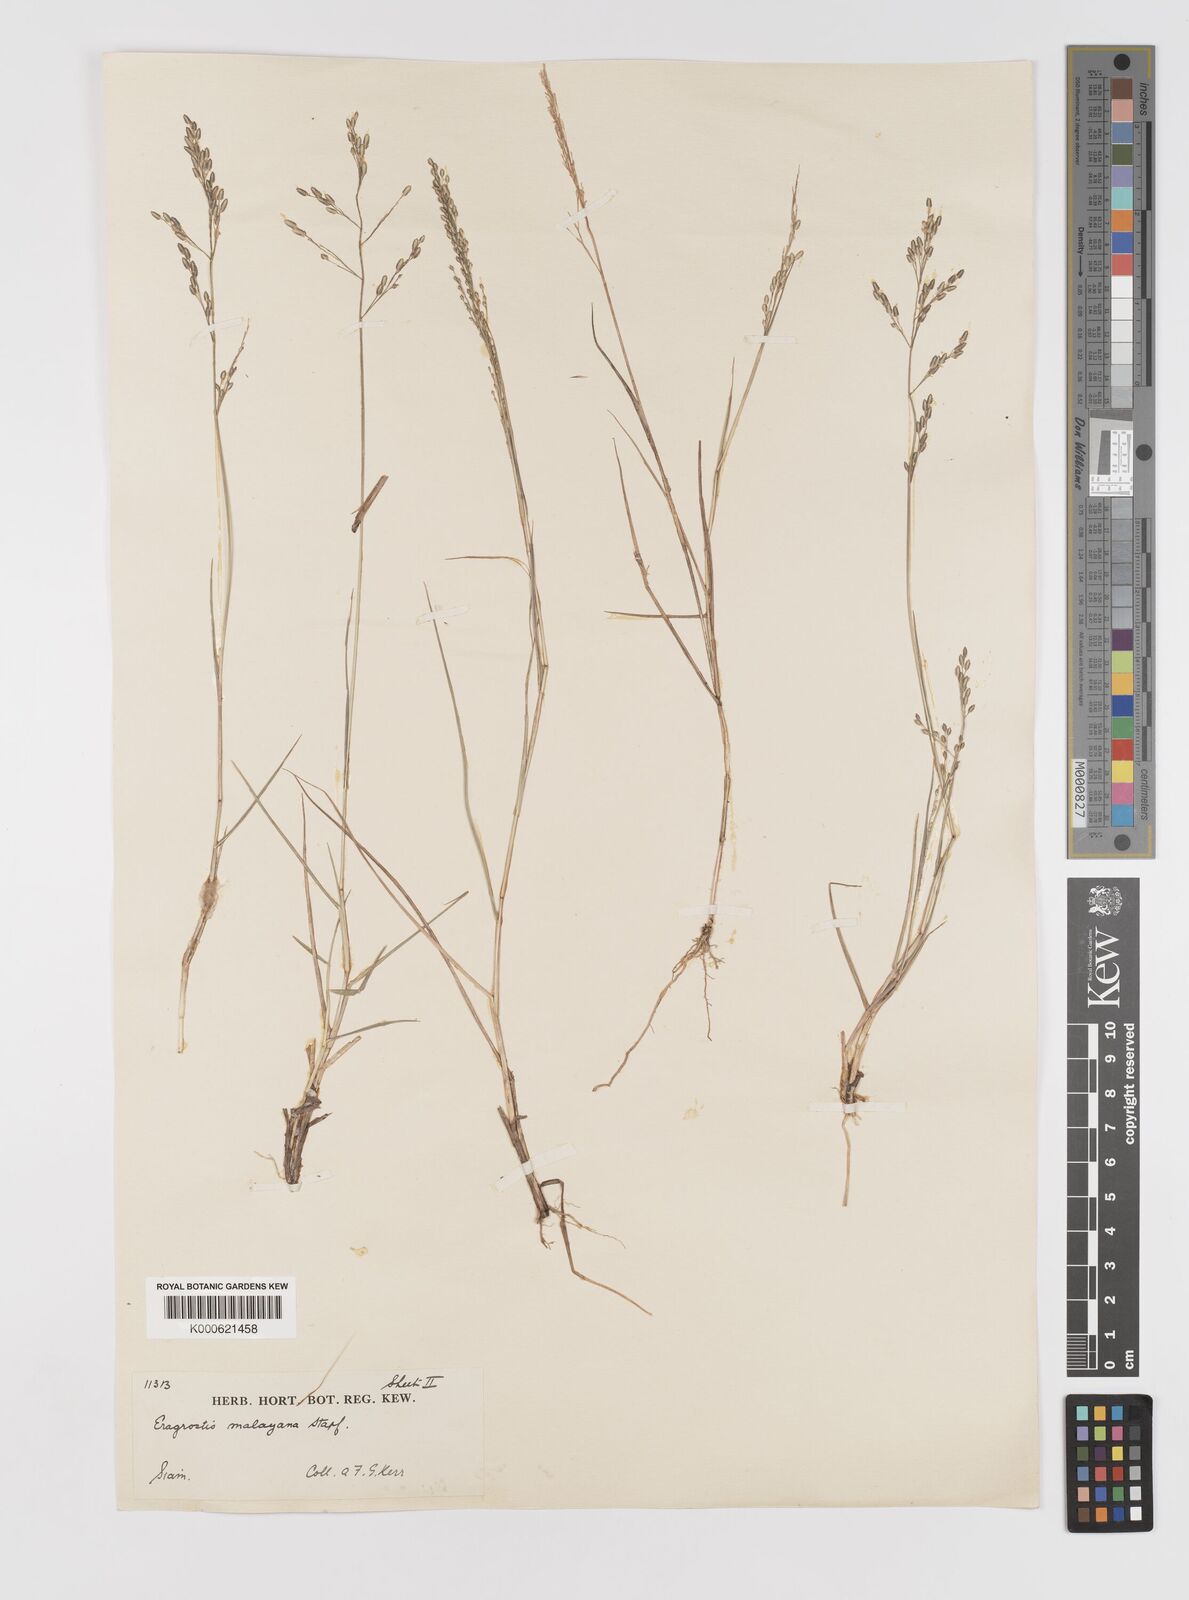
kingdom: Plantae
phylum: Tracheophyta
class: Liliopsida
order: Poales
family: Poaceae
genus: Eragrostis
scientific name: Eragrostis montana
